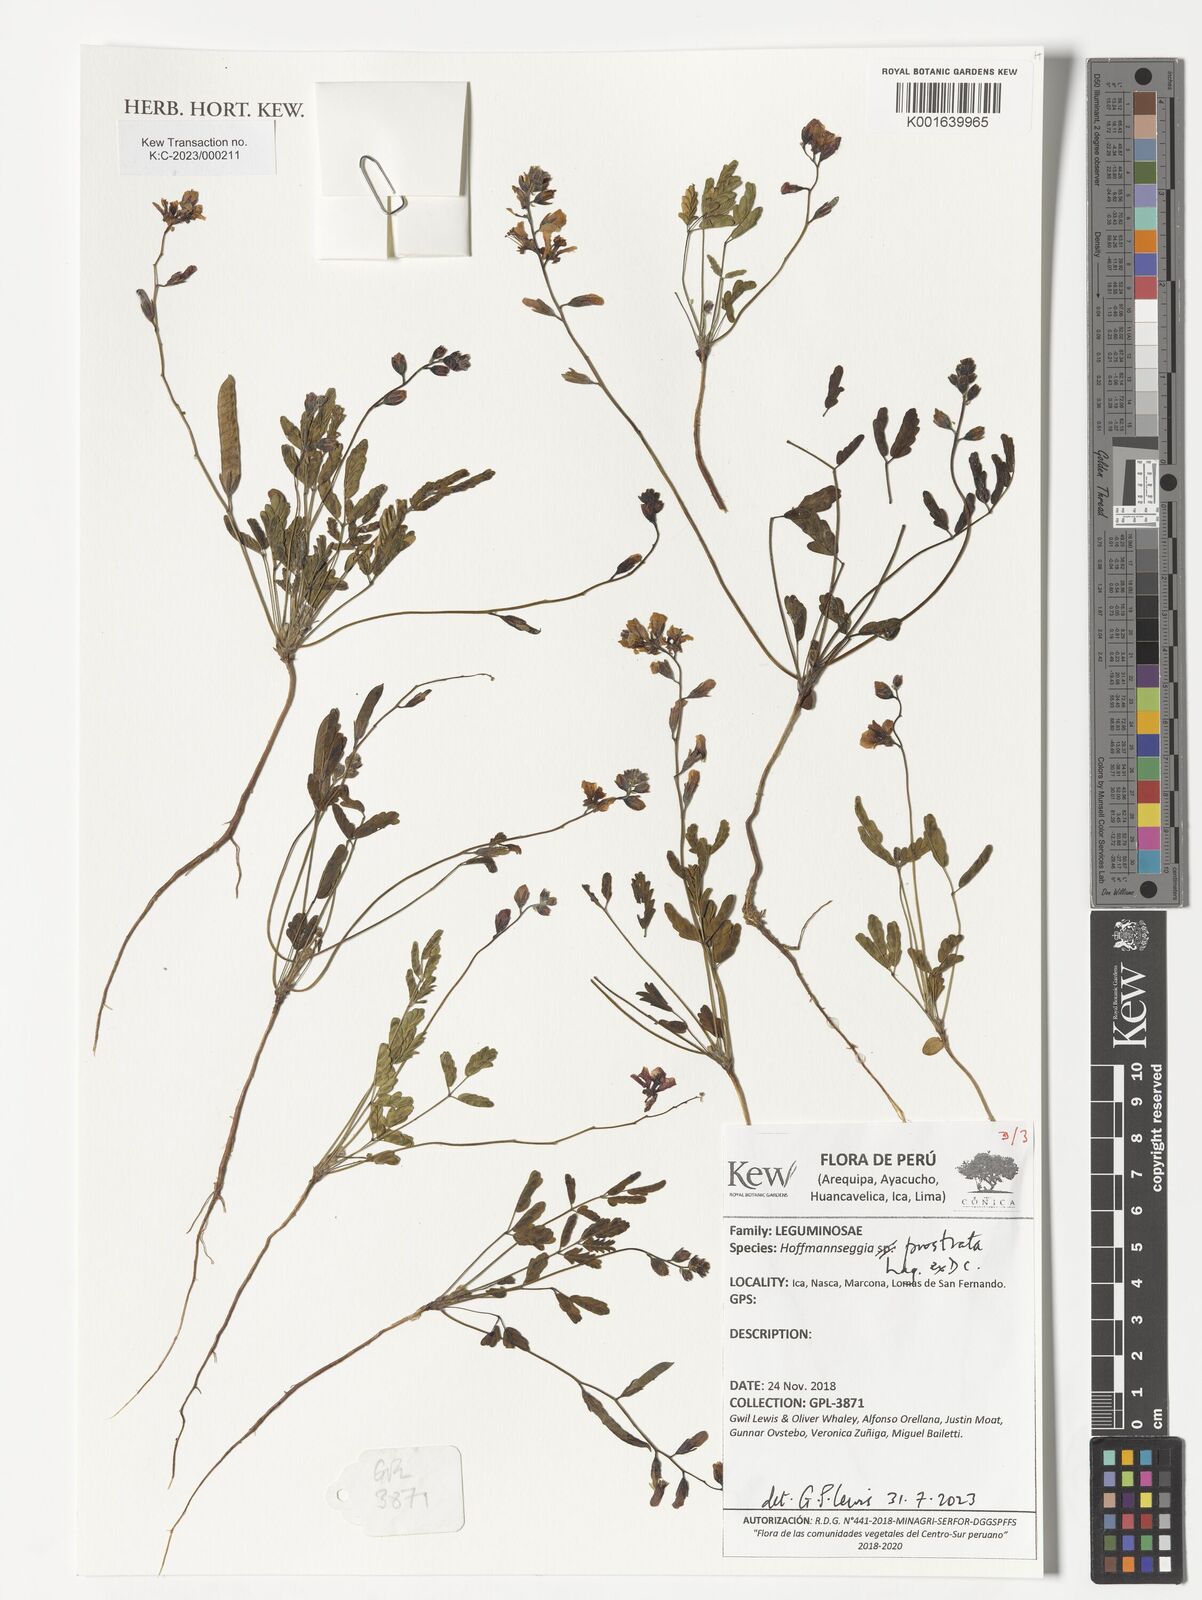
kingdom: Plantae
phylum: Tracheophyta
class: Magnoliopsida
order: Fabales
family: Fabaceae
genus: Hoffmannseggia
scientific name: Hoffmannseggia prostrata
